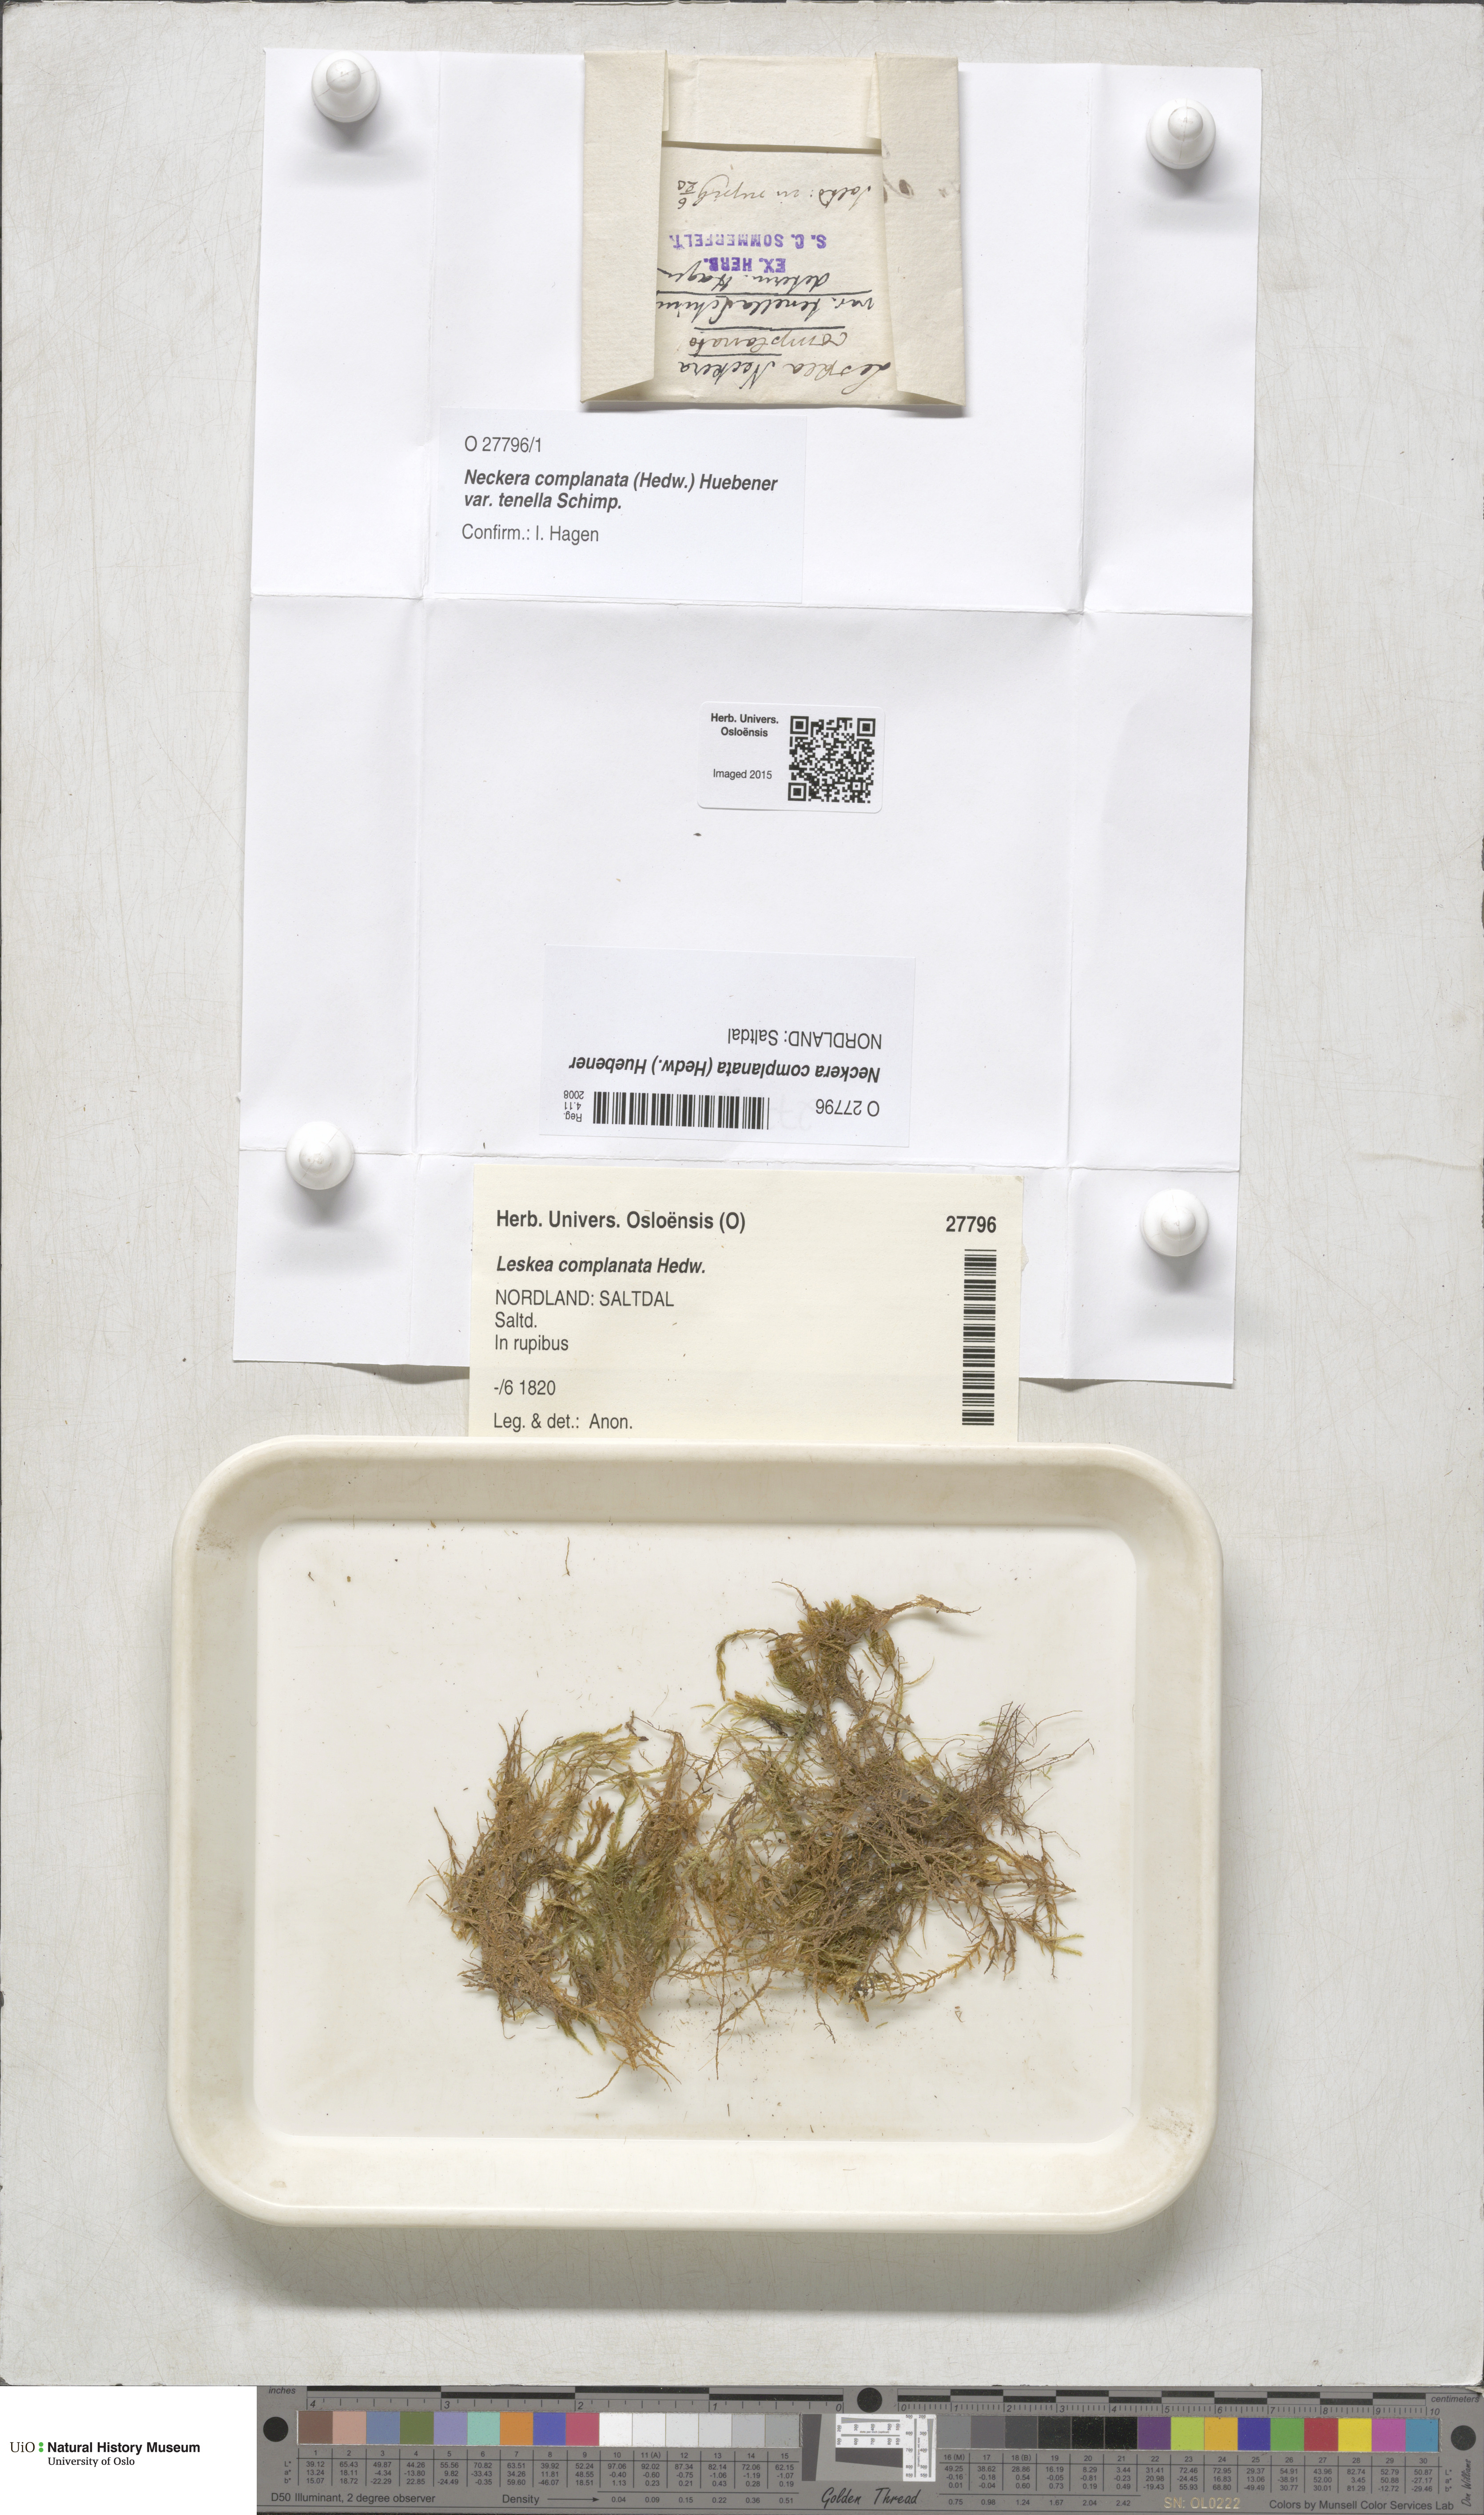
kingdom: Plantae
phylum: Bryophyta
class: Bryopsida
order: Hypnales
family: Neckeraceae
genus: Alleniella
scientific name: Alleniella complanata
